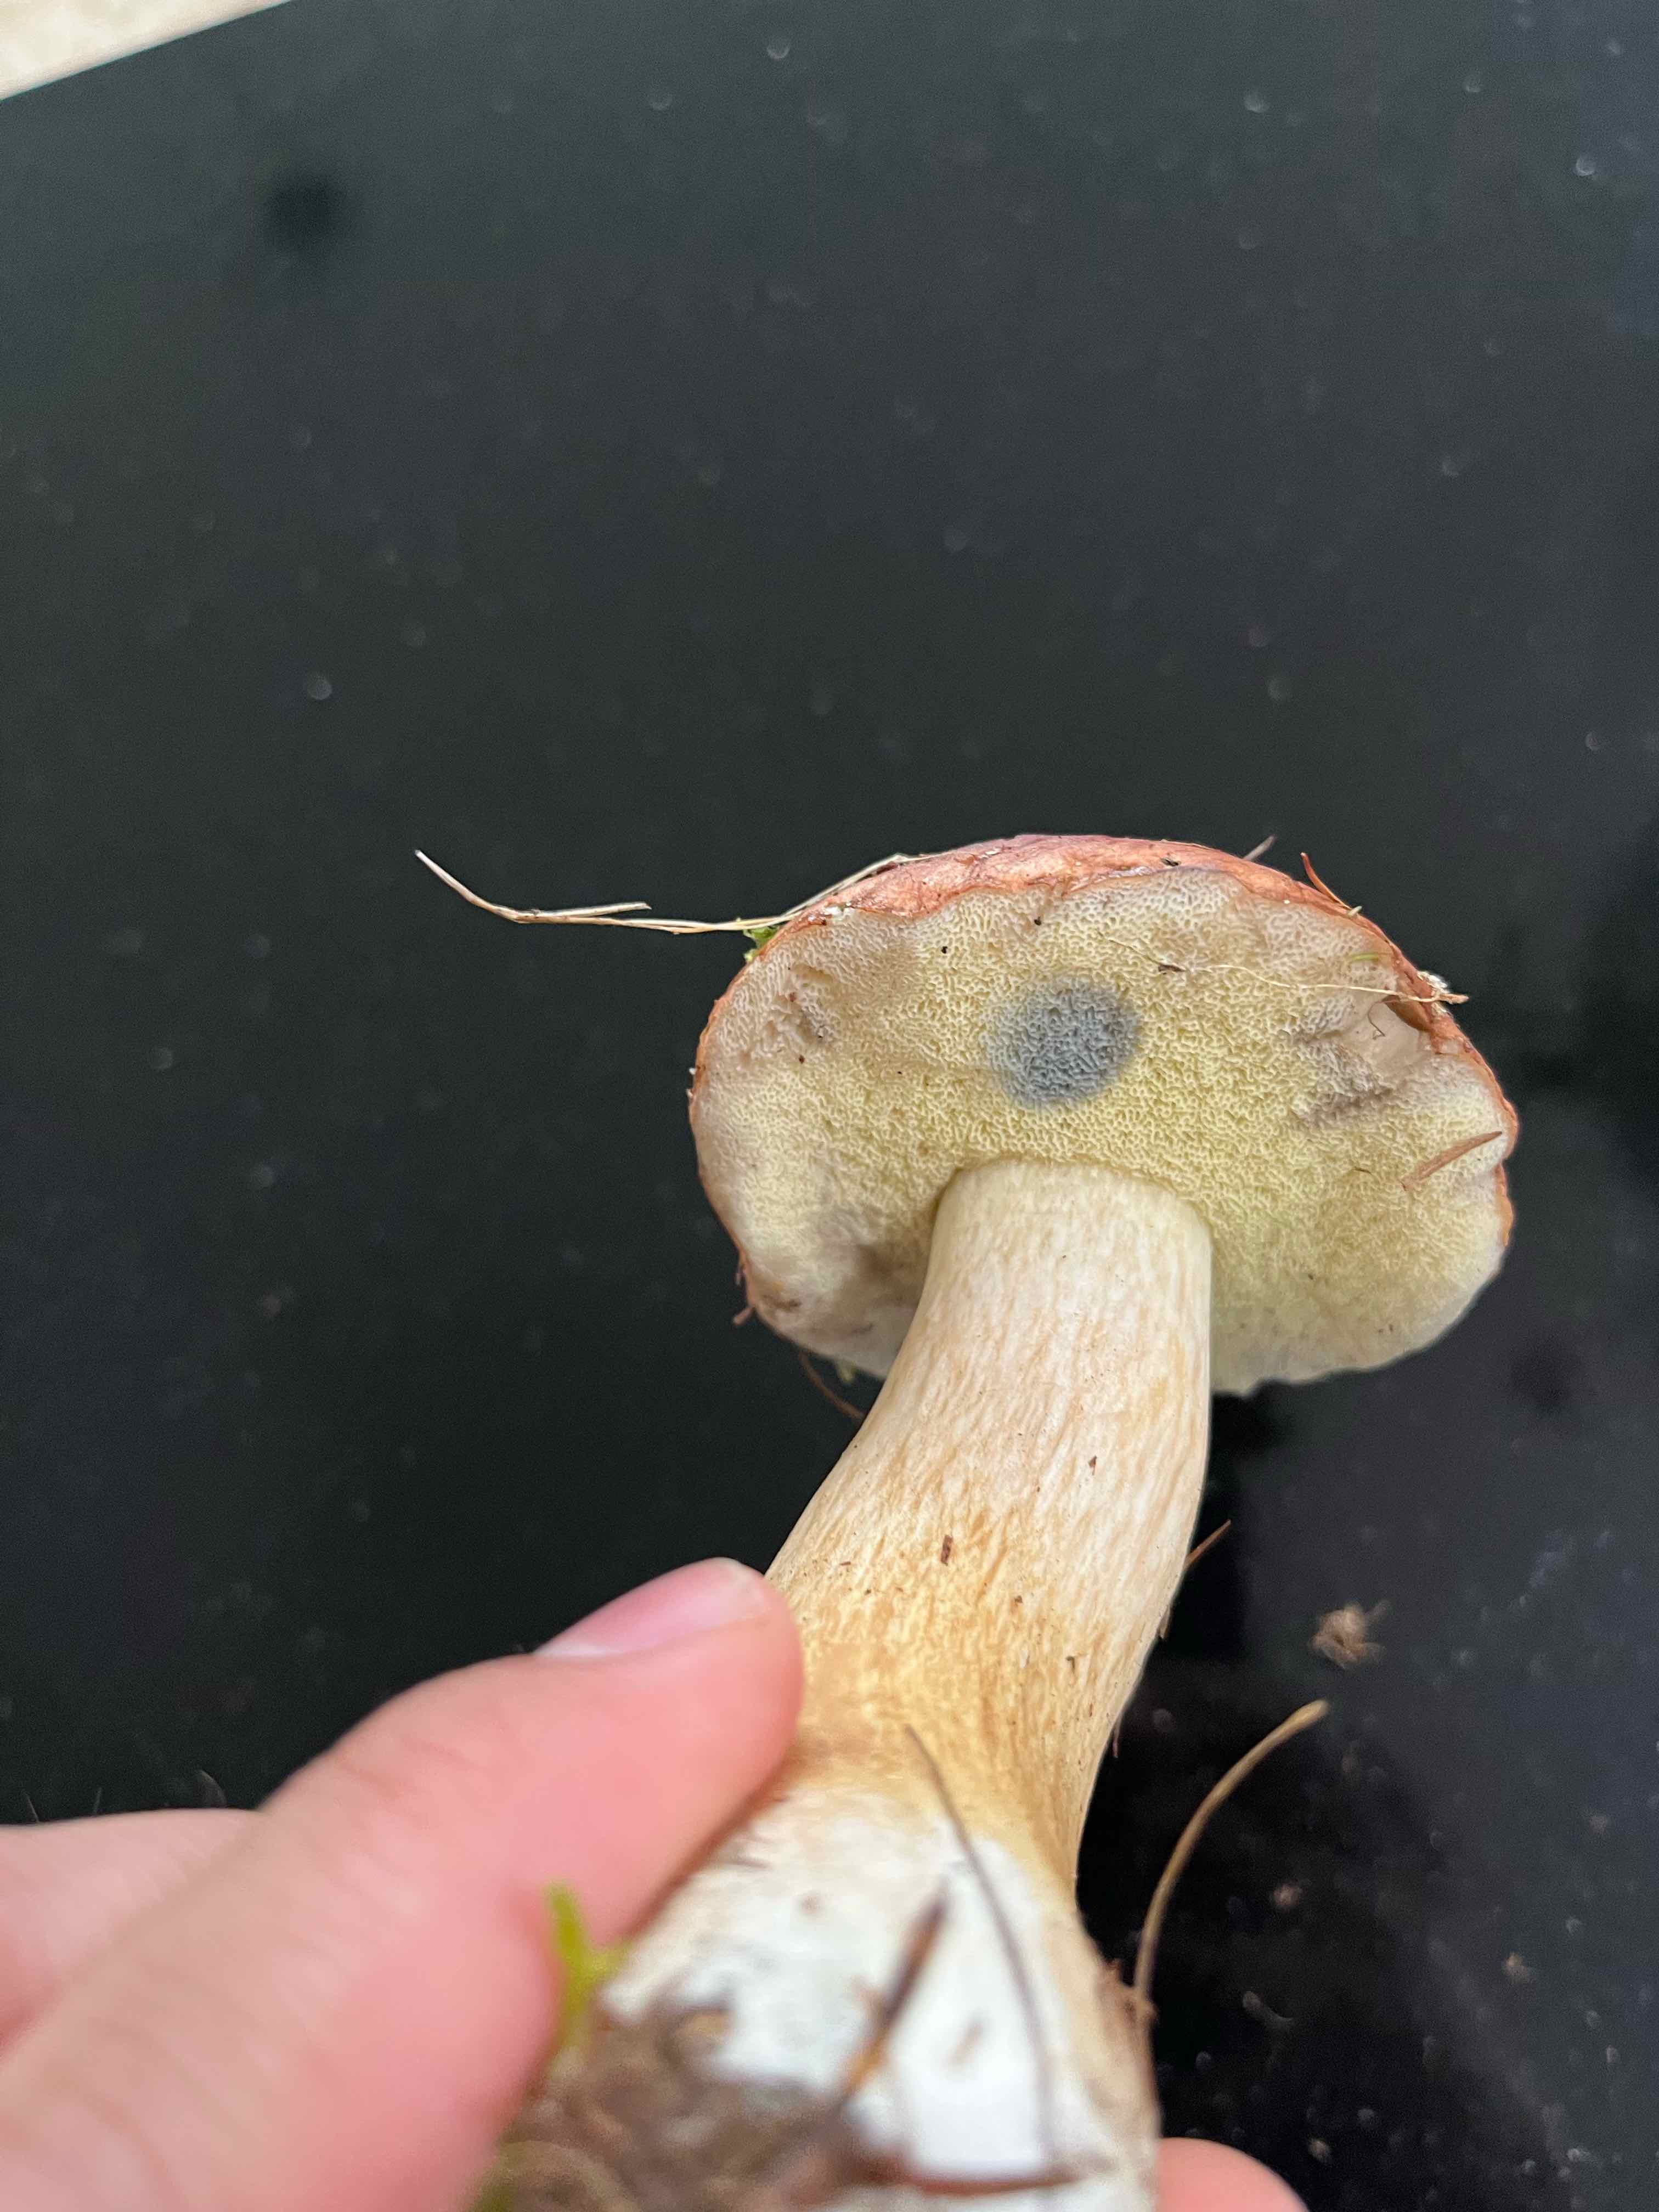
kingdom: Fungi
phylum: Basidiomycota
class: Agaricomycetes
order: Boletales
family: Boletaceae
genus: Boletus
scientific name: Boletus edulis
